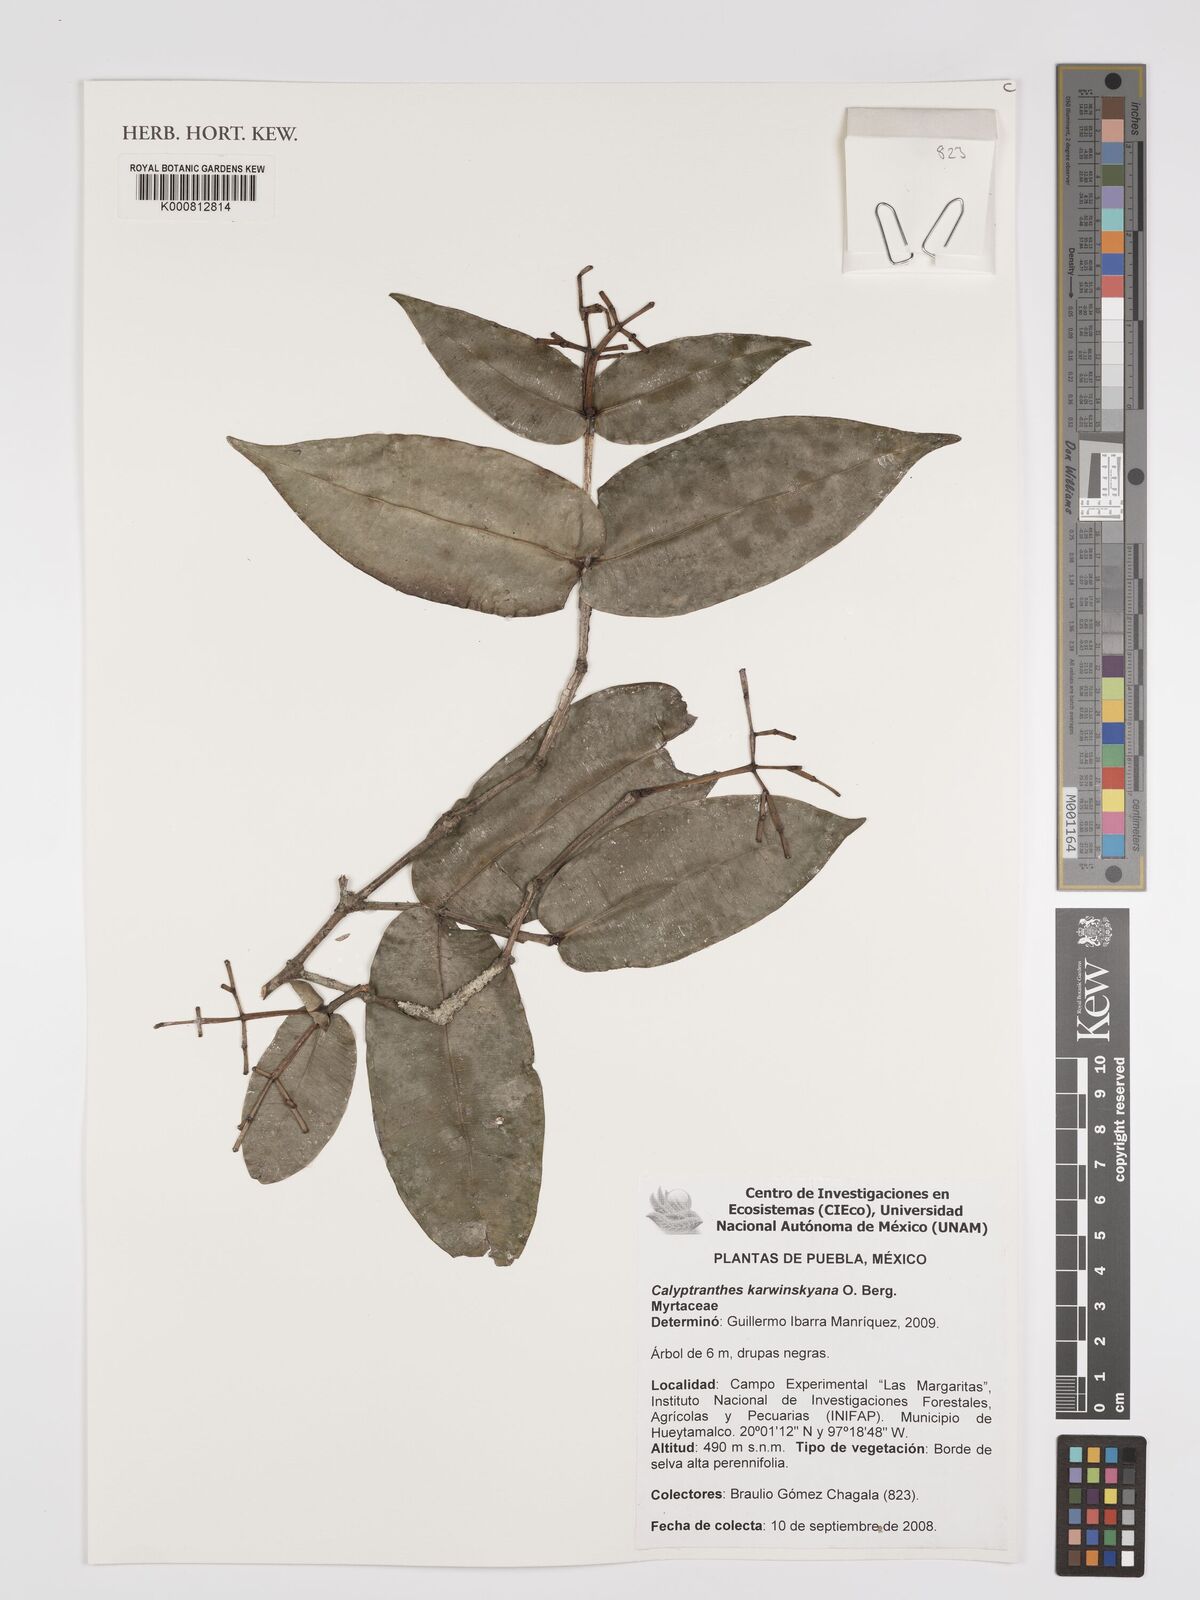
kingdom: Plantae
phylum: Tracheophyta
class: Magnoliopsida
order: Myrtales
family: Myrtaceae
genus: Myrcia
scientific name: Myrcia karwinskyana
